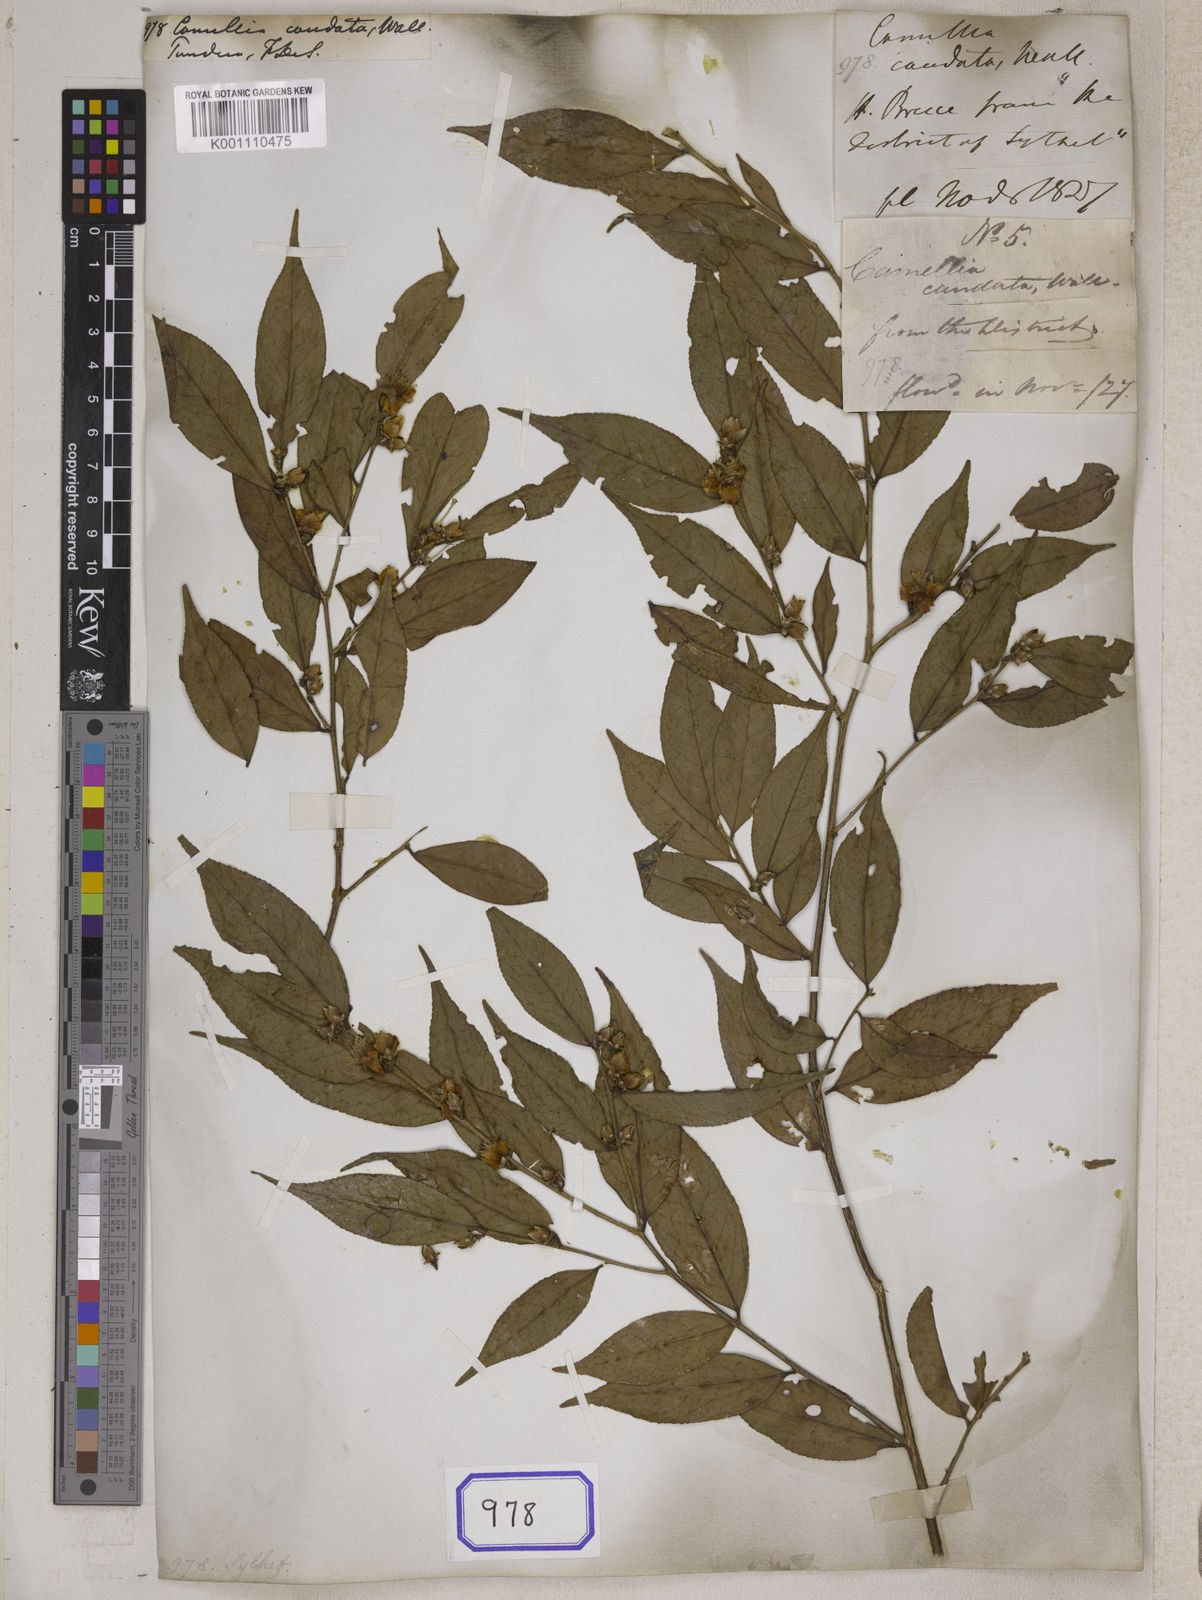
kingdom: Plantae
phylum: Tracheophyta
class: Magnoliopsida
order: Ericales
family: Theaceae
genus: Camellia
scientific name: Camellia caudata
